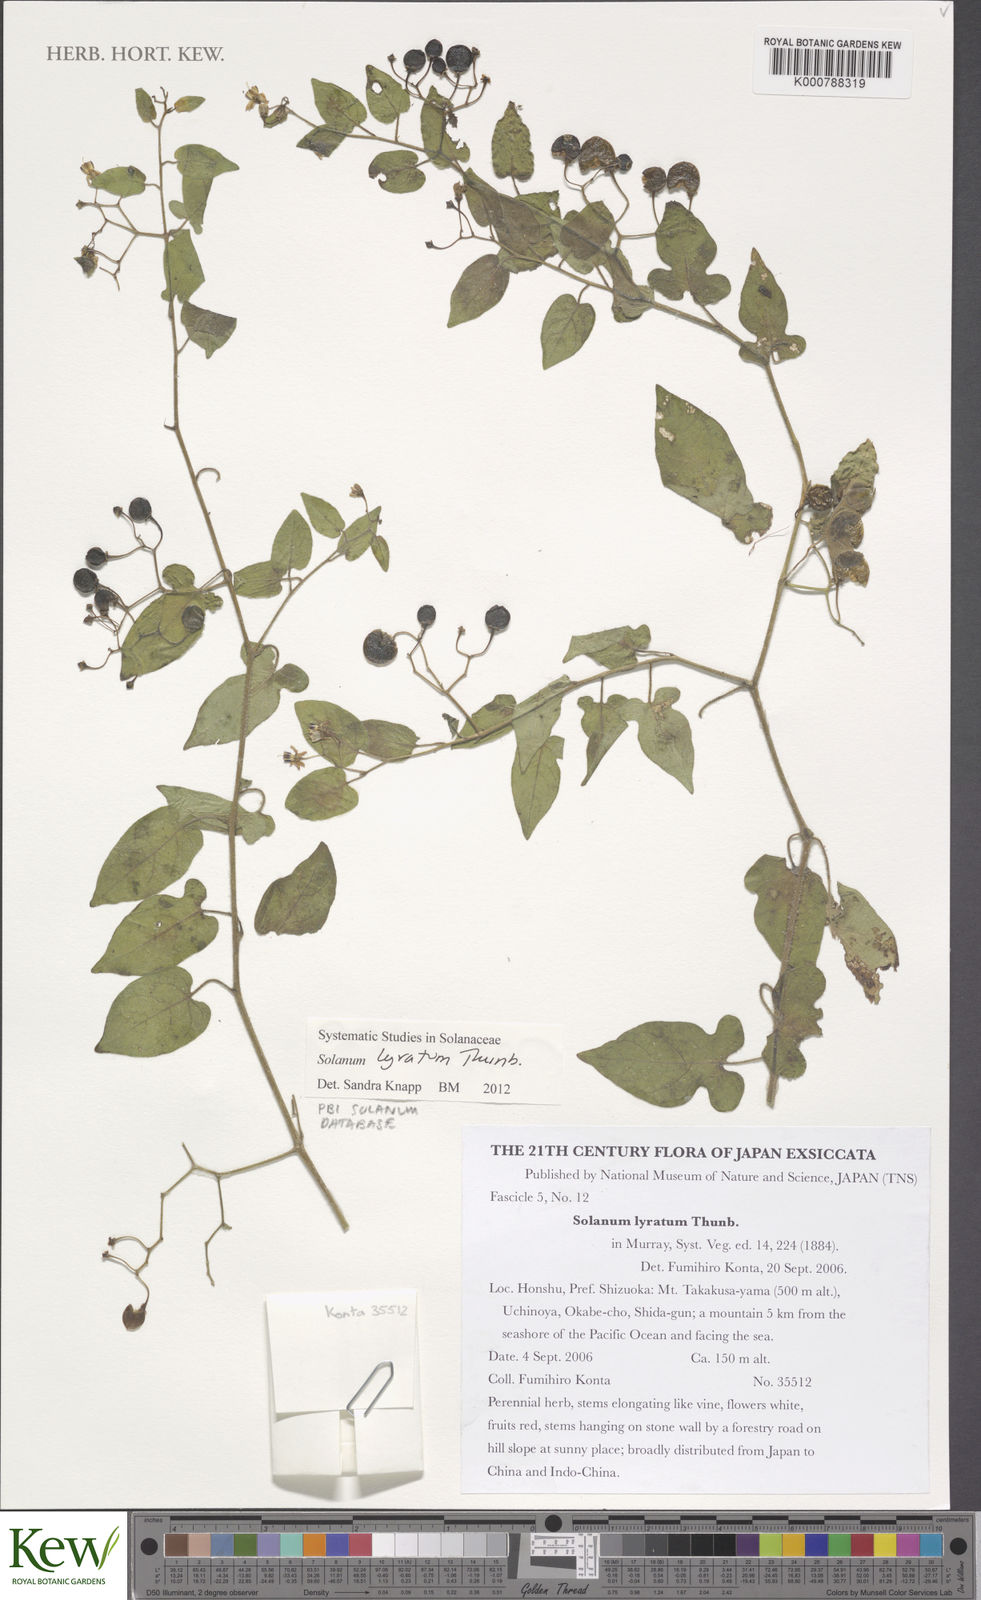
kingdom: Plantae
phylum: Tracheophyta
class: Magnoliopsida
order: Solanales
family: Solanaceae
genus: Solanum
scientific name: Solanum lyratum
